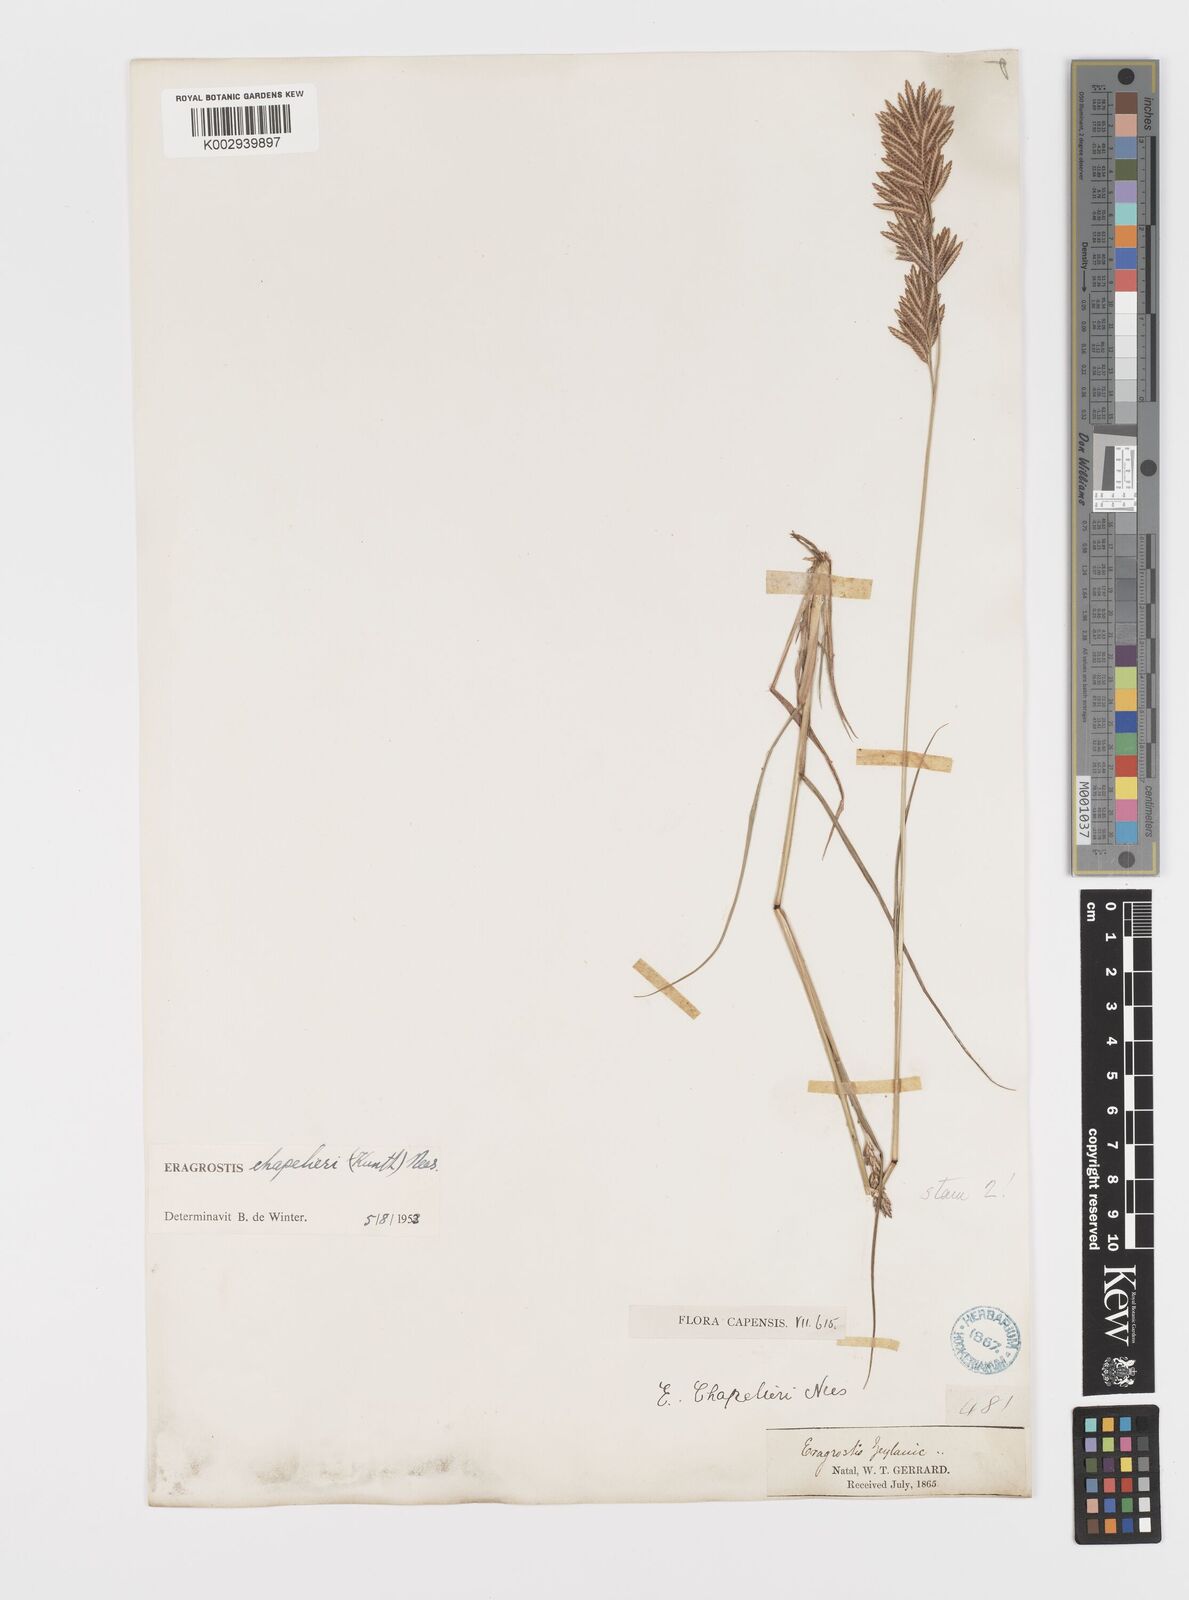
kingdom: Plantae
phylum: Tracheophyta
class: Liliopsida
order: Poales
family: Poaceae
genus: Eragrostis
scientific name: Eragrostis chapelieri
